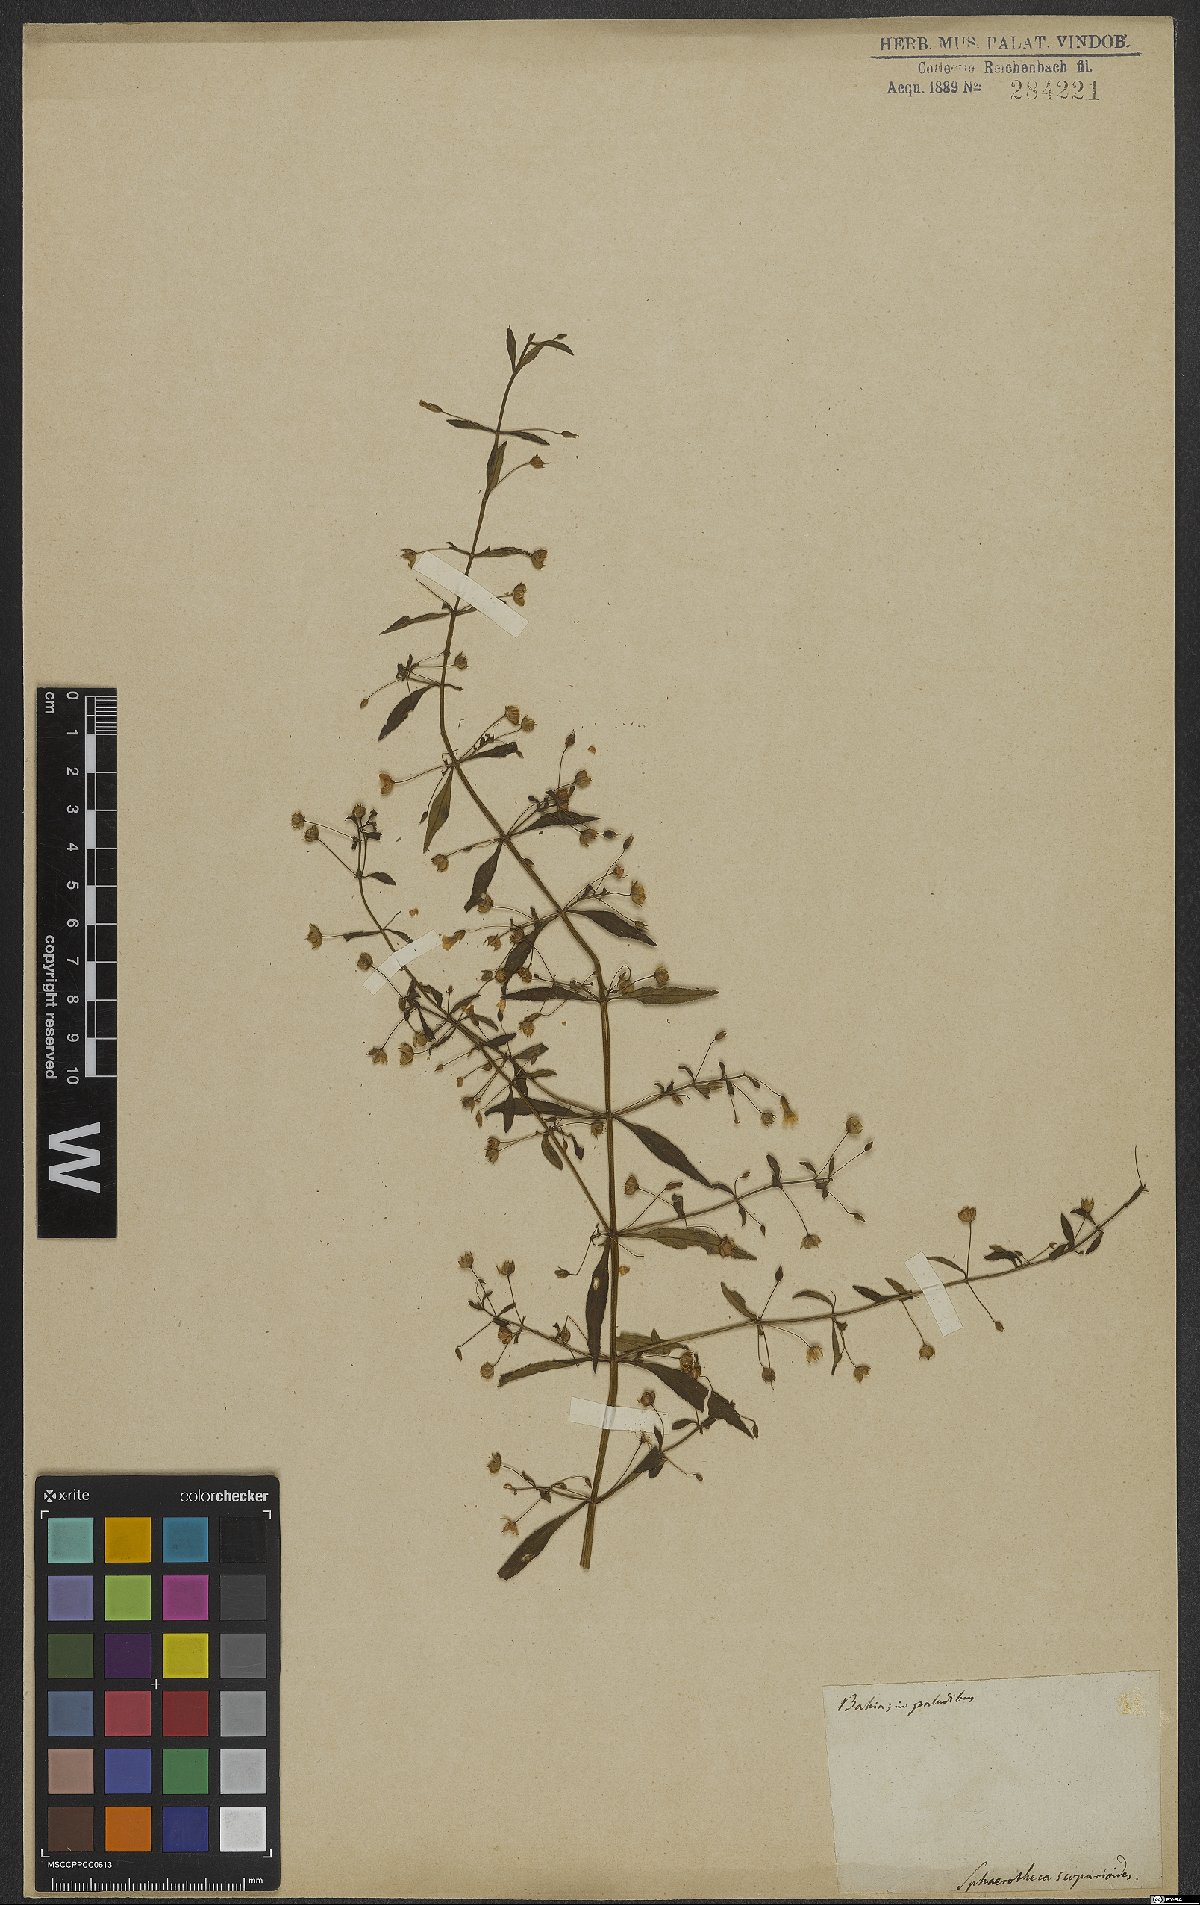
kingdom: Plantae
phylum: Tracheophyta
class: Magnoliopsida
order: Lamiales
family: Plantaginaceae
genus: Conobea
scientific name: Conobea scoparioides
